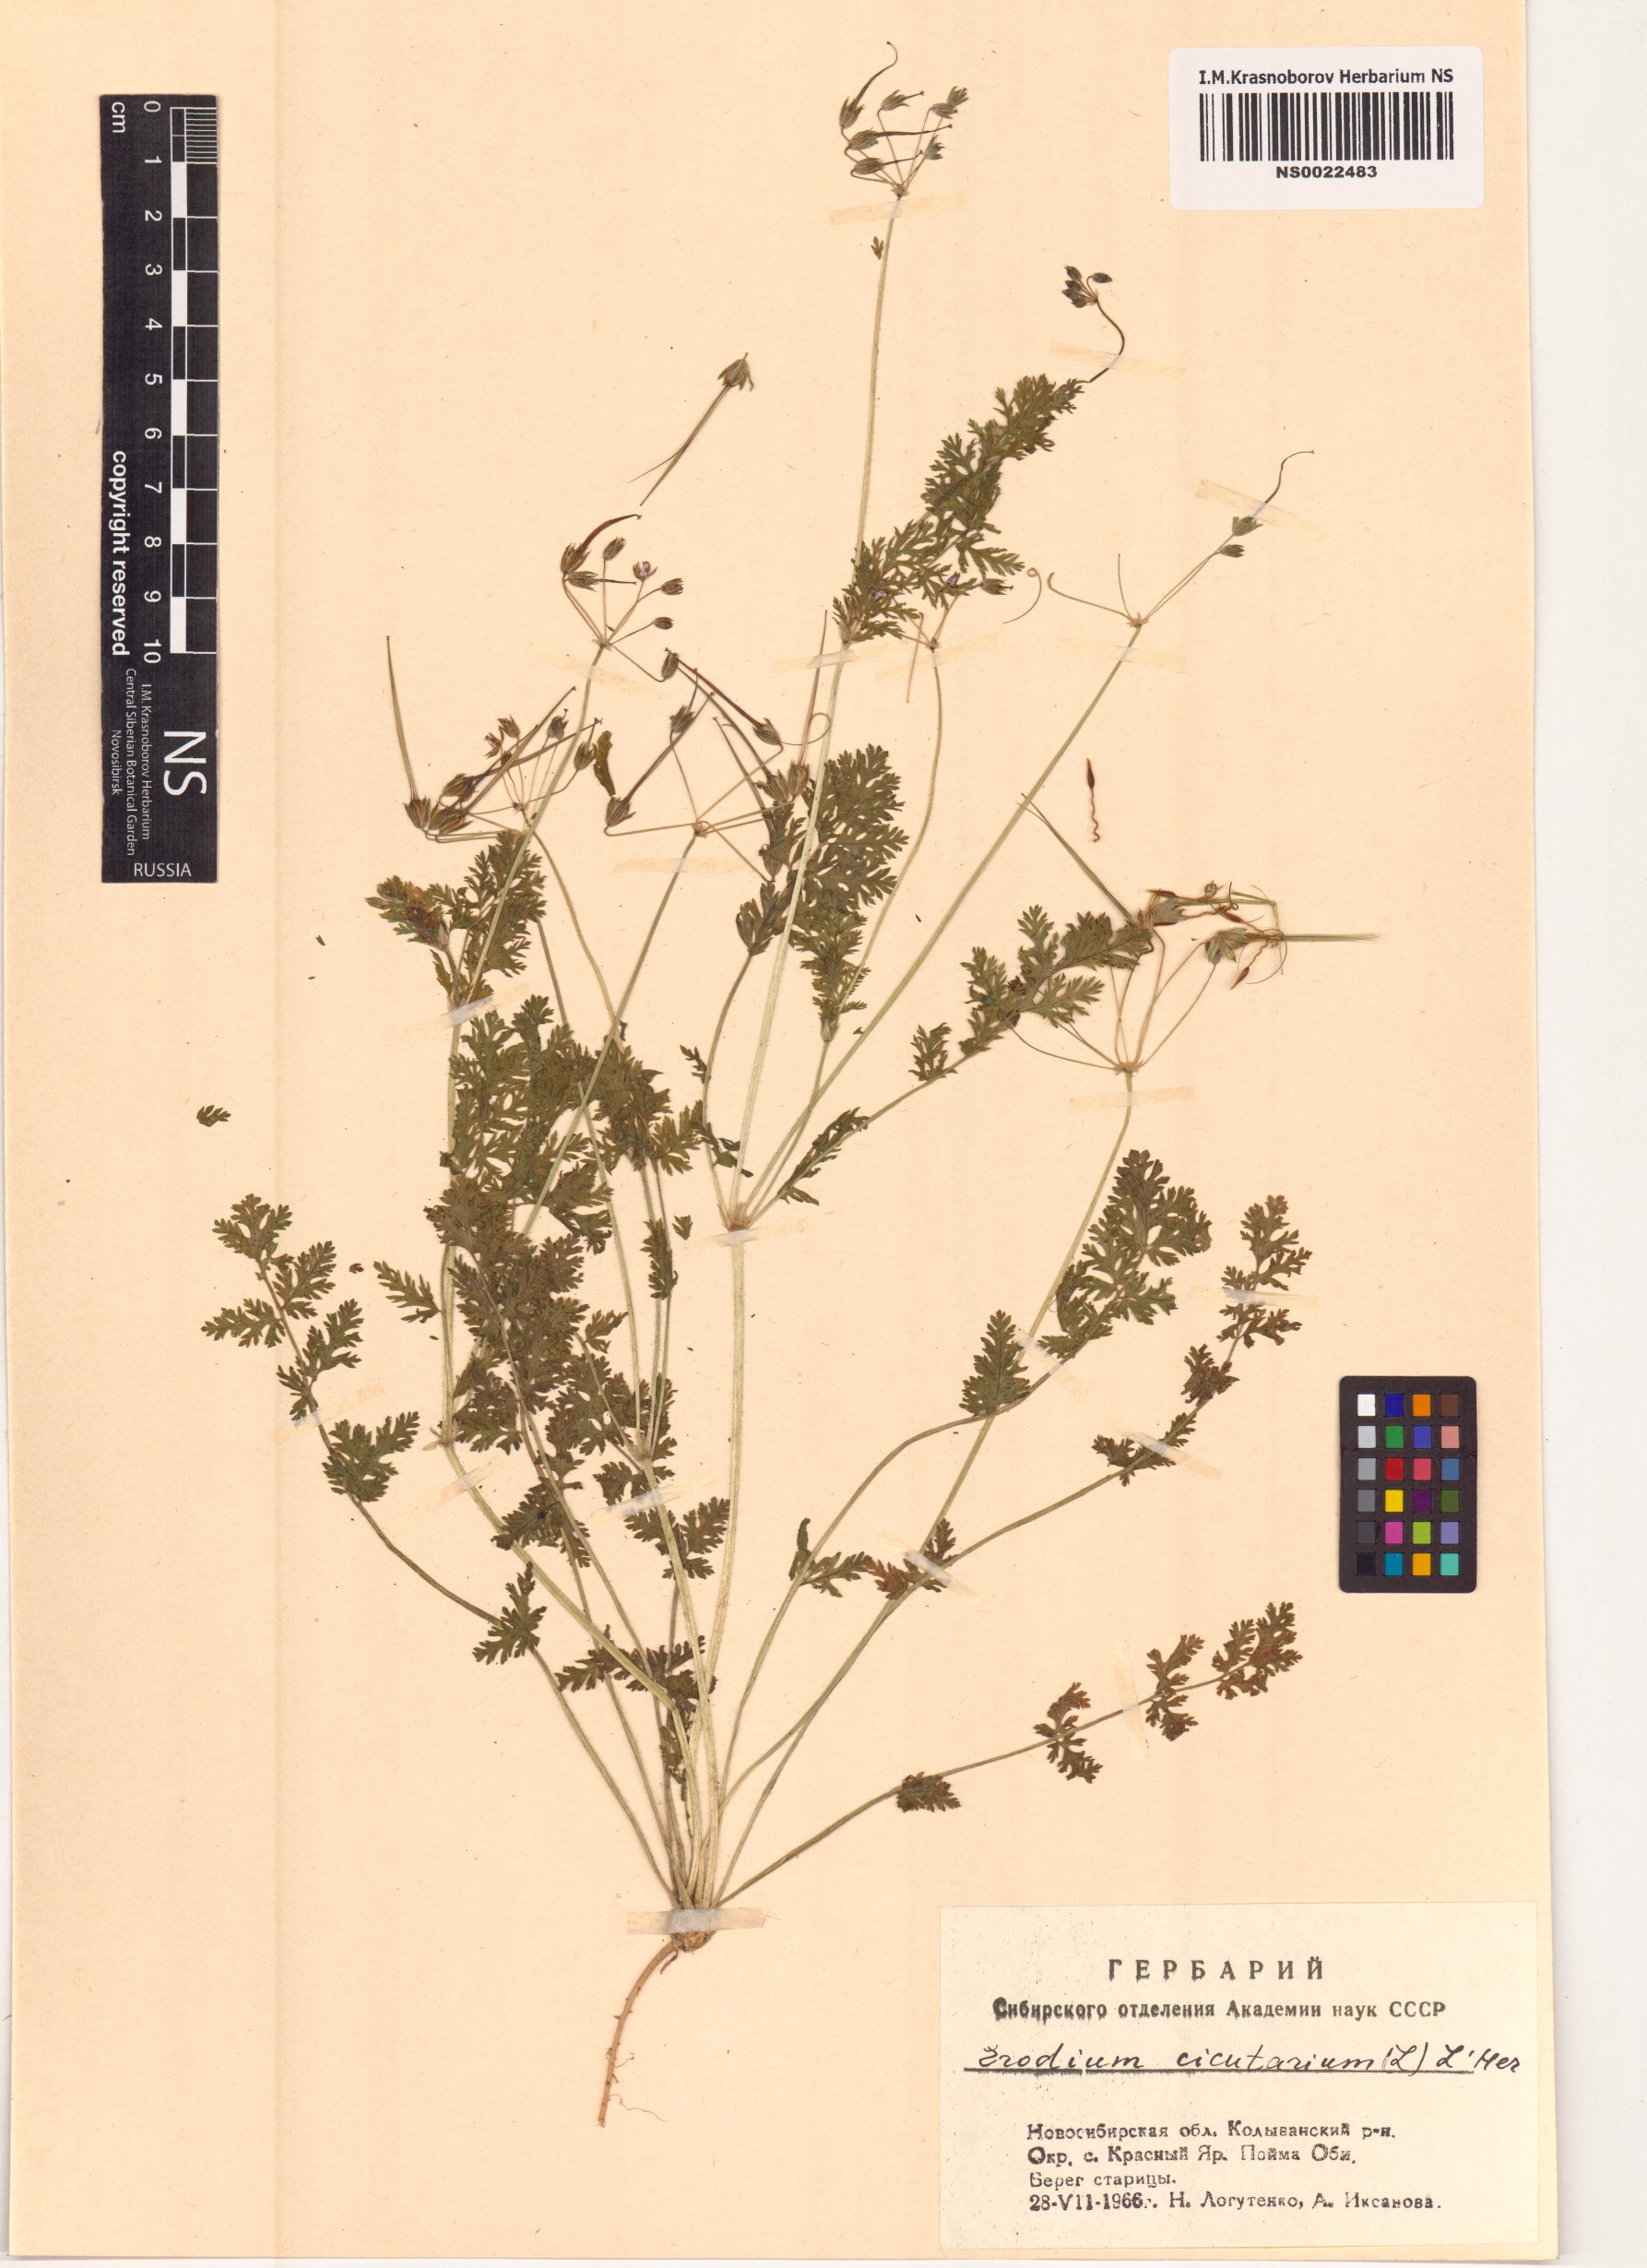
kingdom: Plantae
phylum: Tracheophyta
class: Magnoliopsida
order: Geraniales
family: Geraniaceae
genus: Erodium
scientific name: Erodium cicutarium
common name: Common stork's-bill
